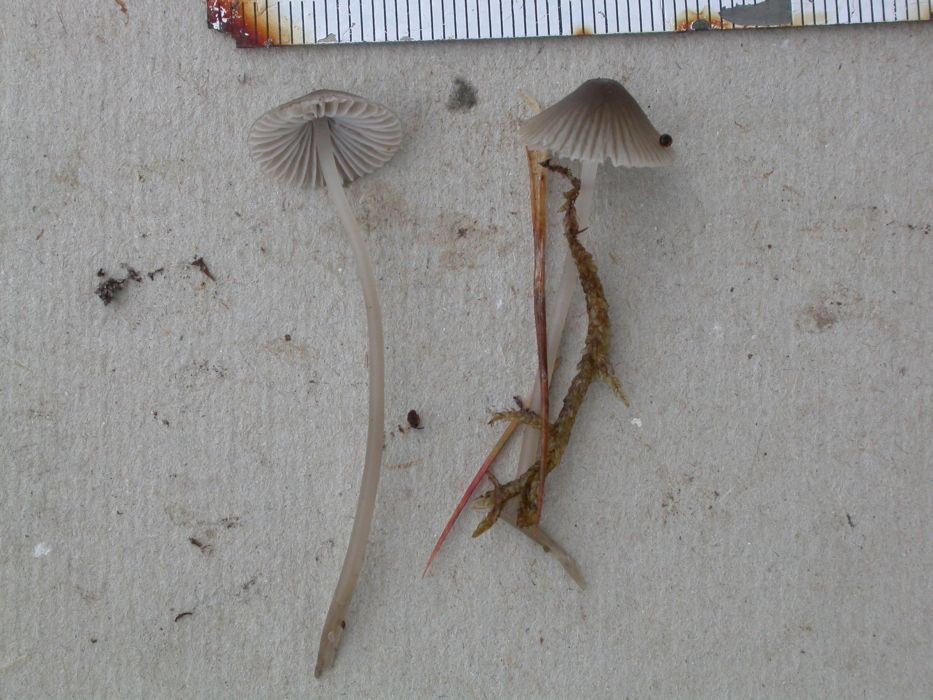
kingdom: Fungi
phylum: Basidiomycota
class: Agaricomycetes
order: Agaricales
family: Mycenaceae
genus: Mycena
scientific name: Mycena aetites
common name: plæne-huesvamp
